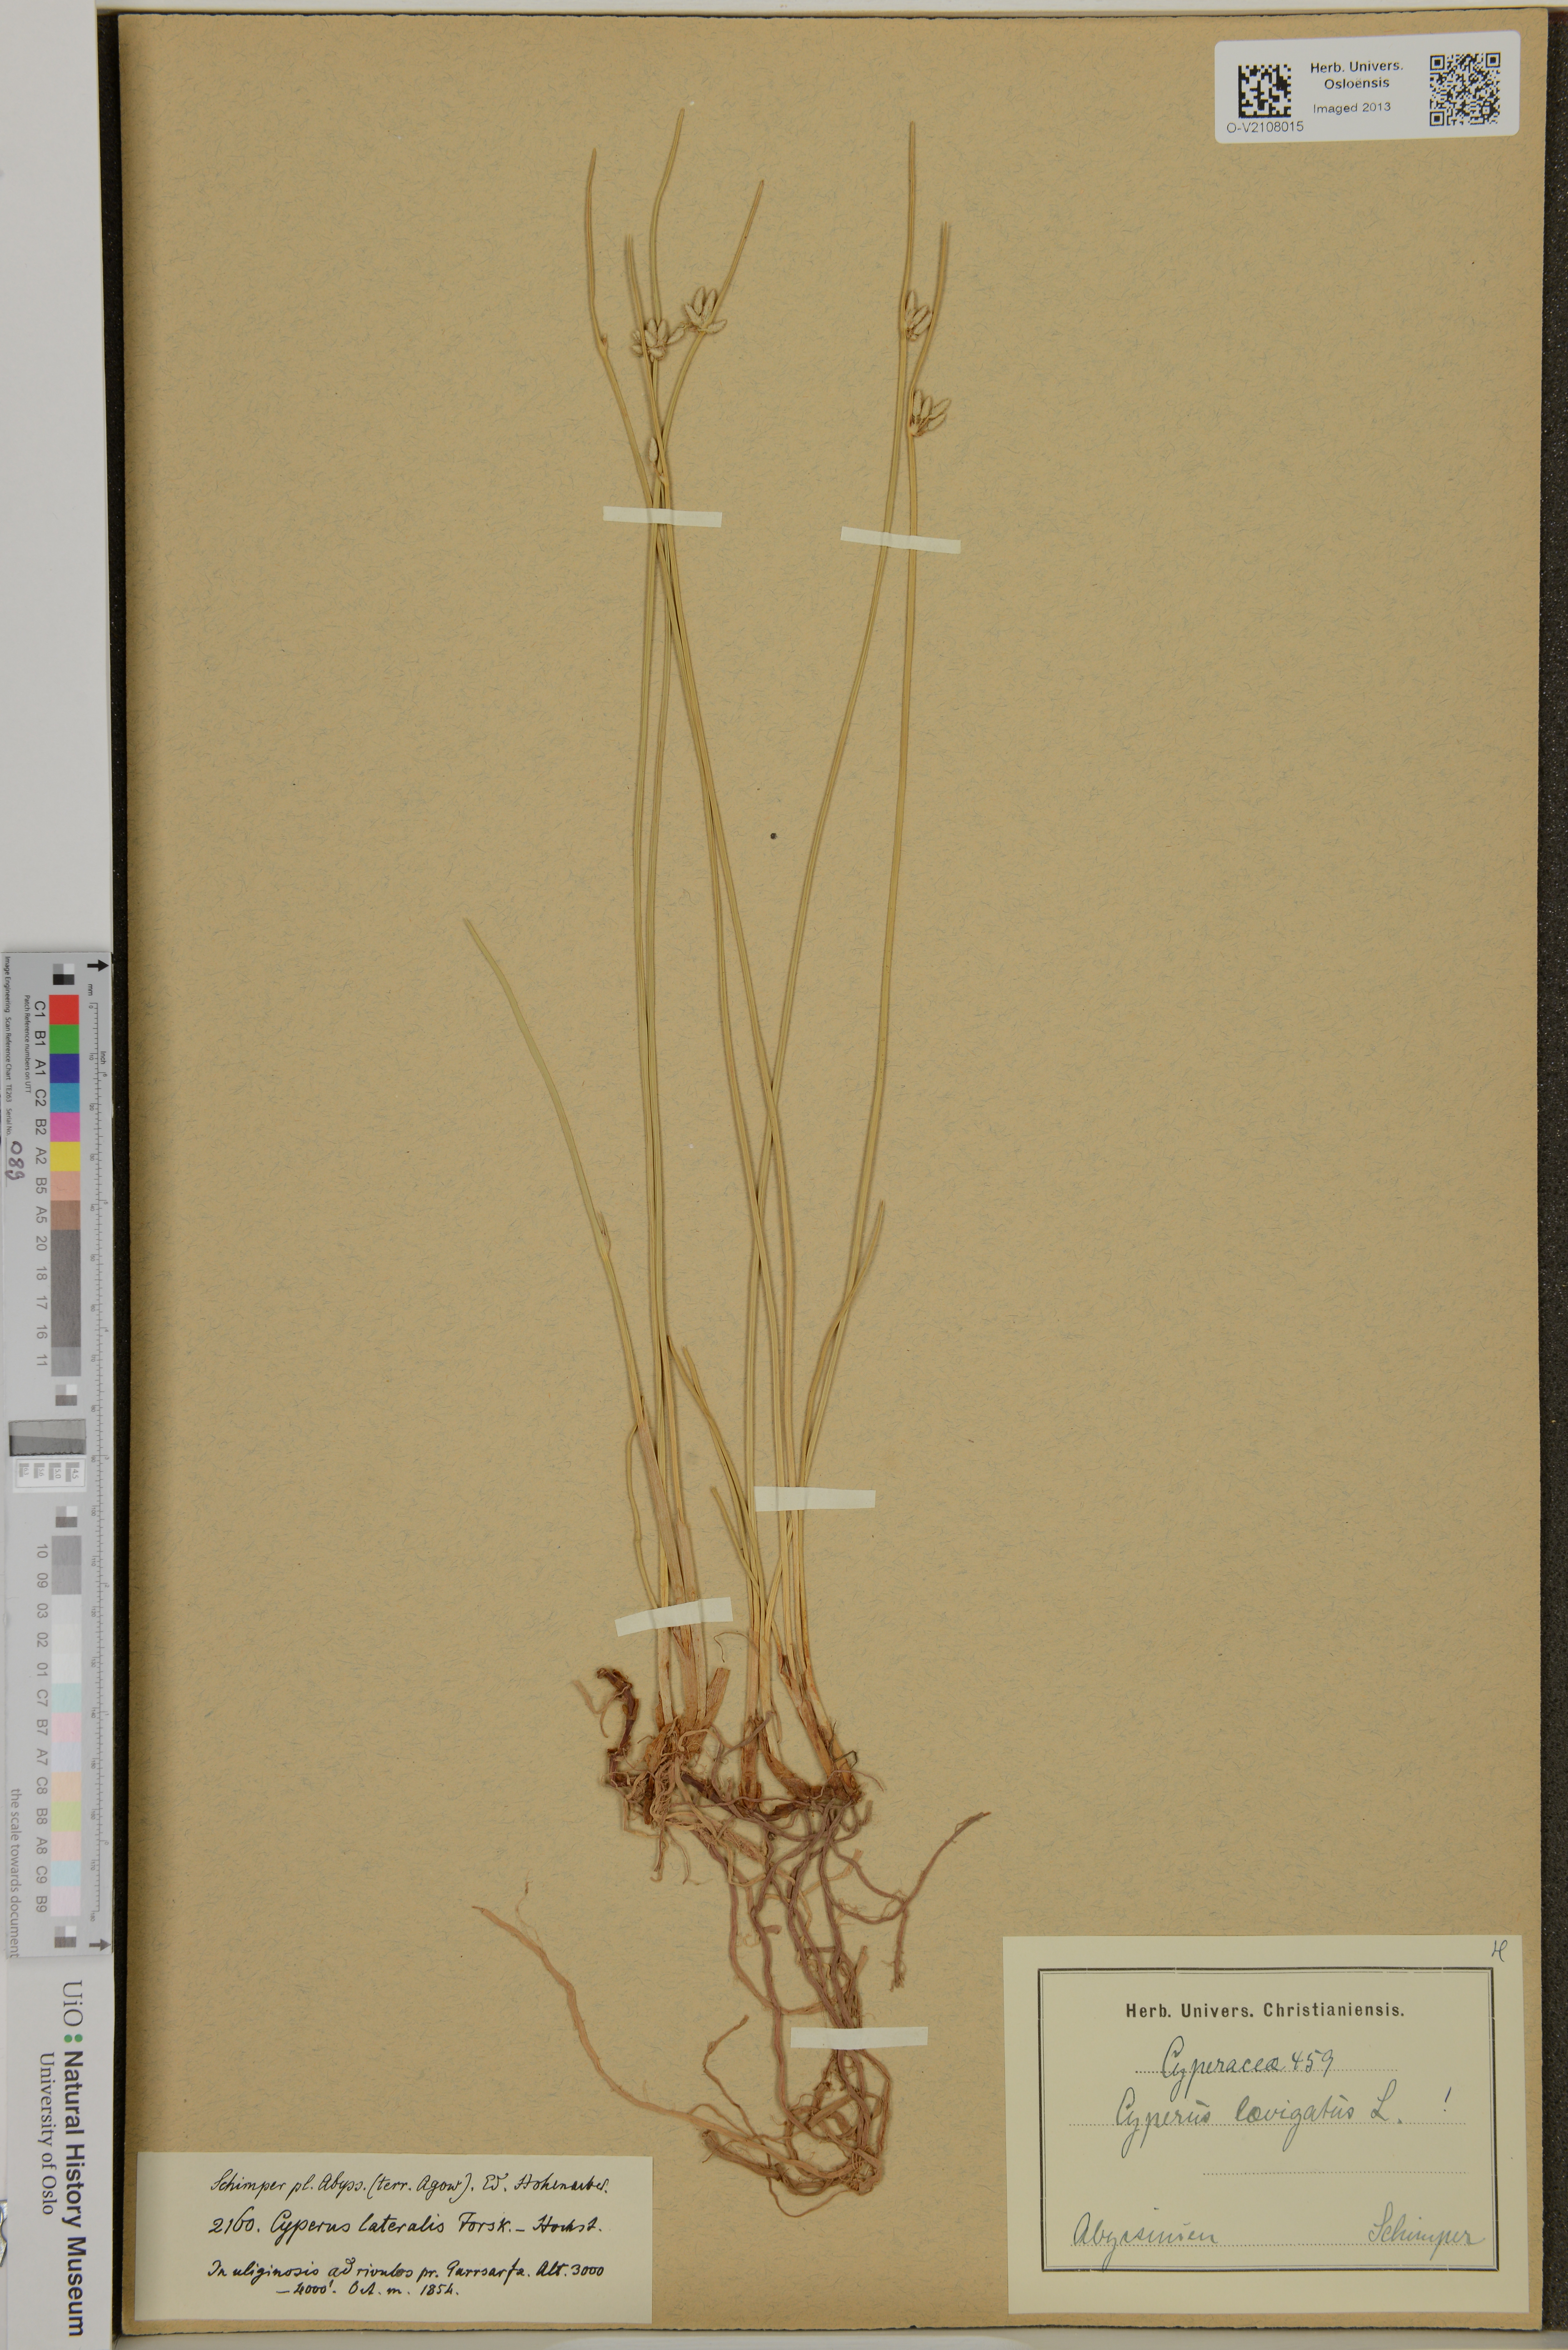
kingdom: Plantae
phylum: Tracheophyta
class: Liliopsida
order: Poales
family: Cyperaceae
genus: Cyperus
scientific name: Cyperus laevigatus
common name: Smooth flat sedge
